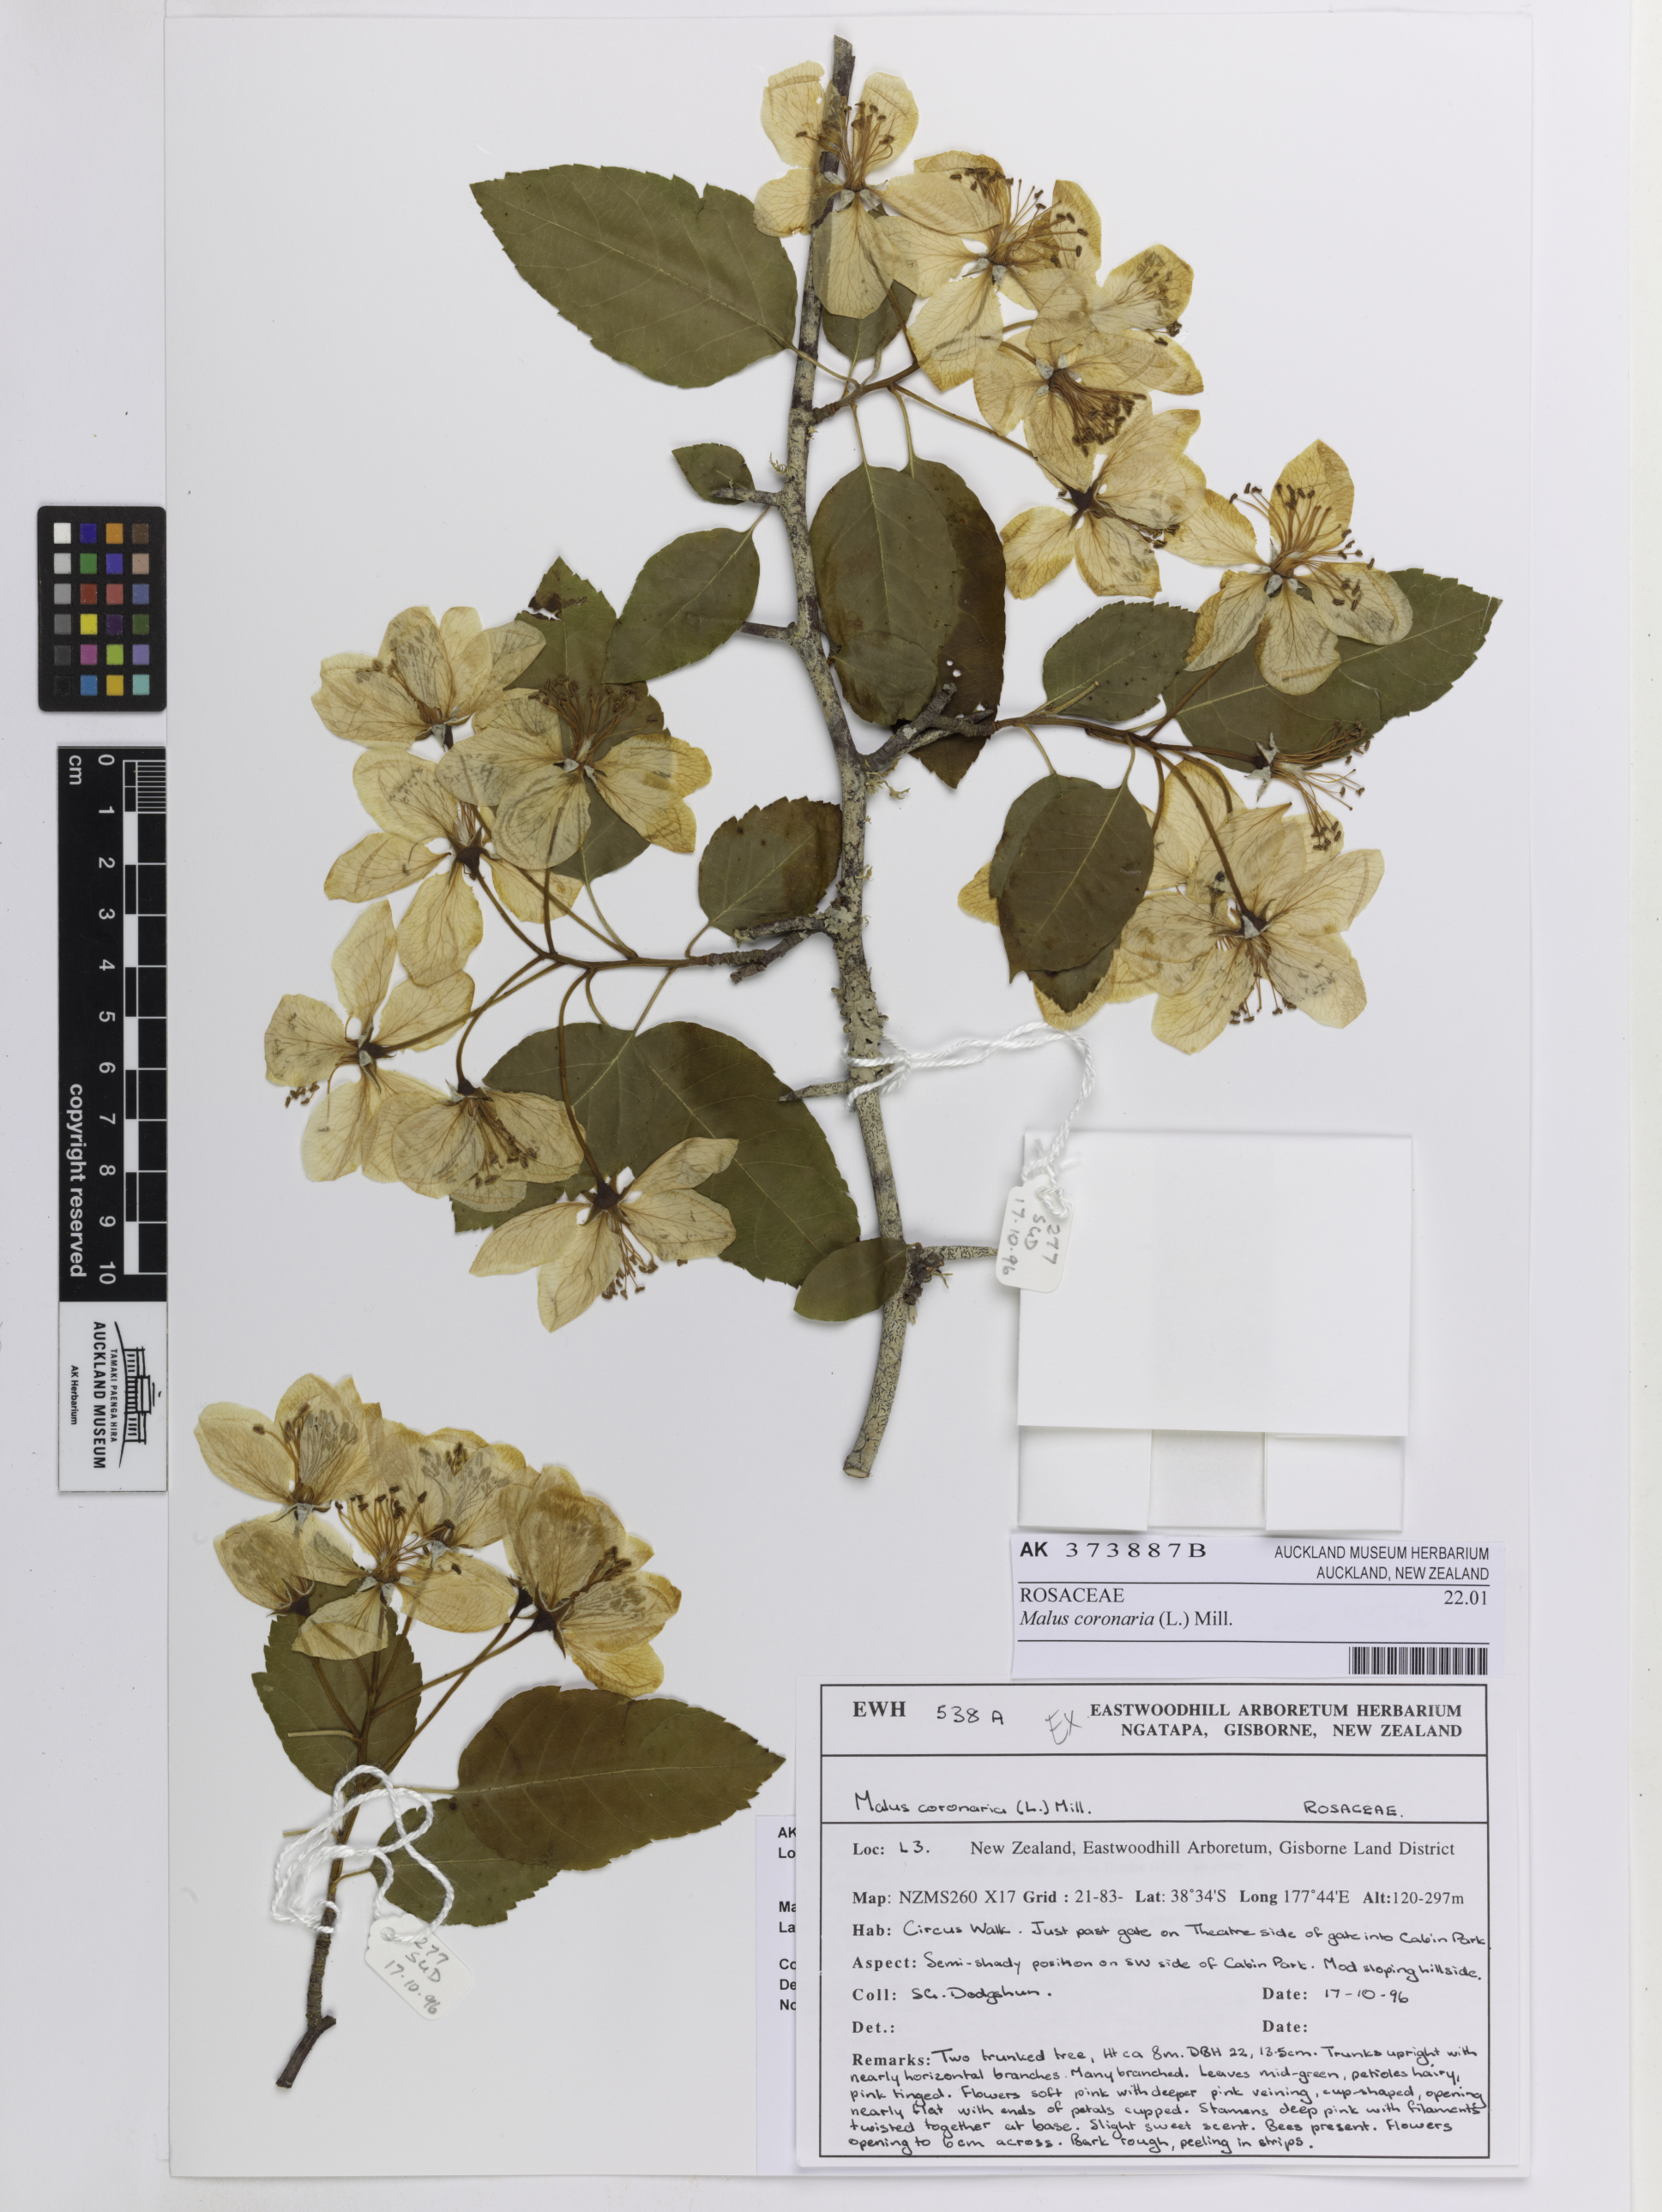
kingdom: Plantae
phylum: Tracheophyta
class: Magnoliopsida
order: Rosales
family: Rosaceae
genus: Malus
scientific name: Malus coronaria
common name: Sweet crab apple
